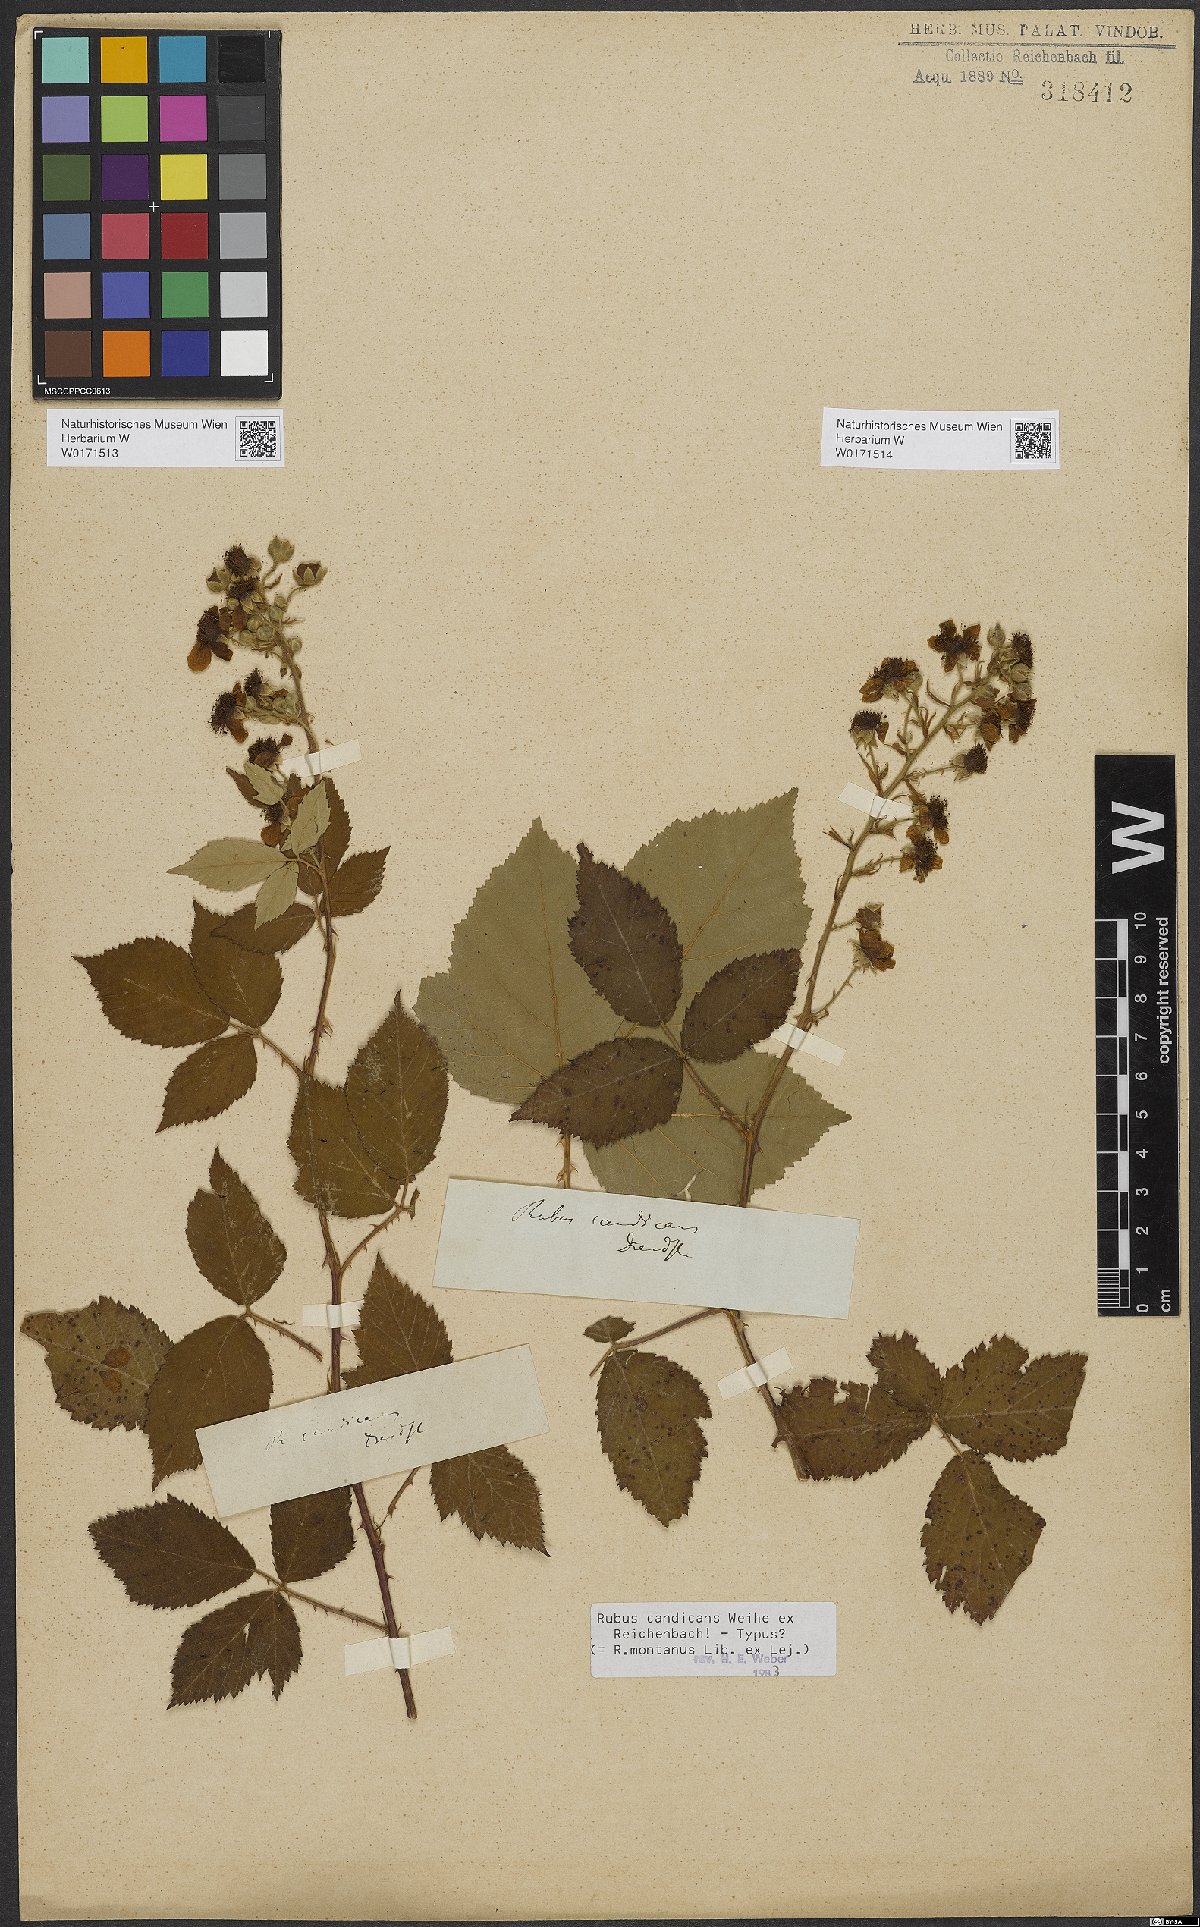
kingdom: Plantae
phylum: Tracheophyta
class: Magnoliopsida
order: Rosales
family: Rosaceae
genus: Rubus
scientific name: Rubus silesiacus
